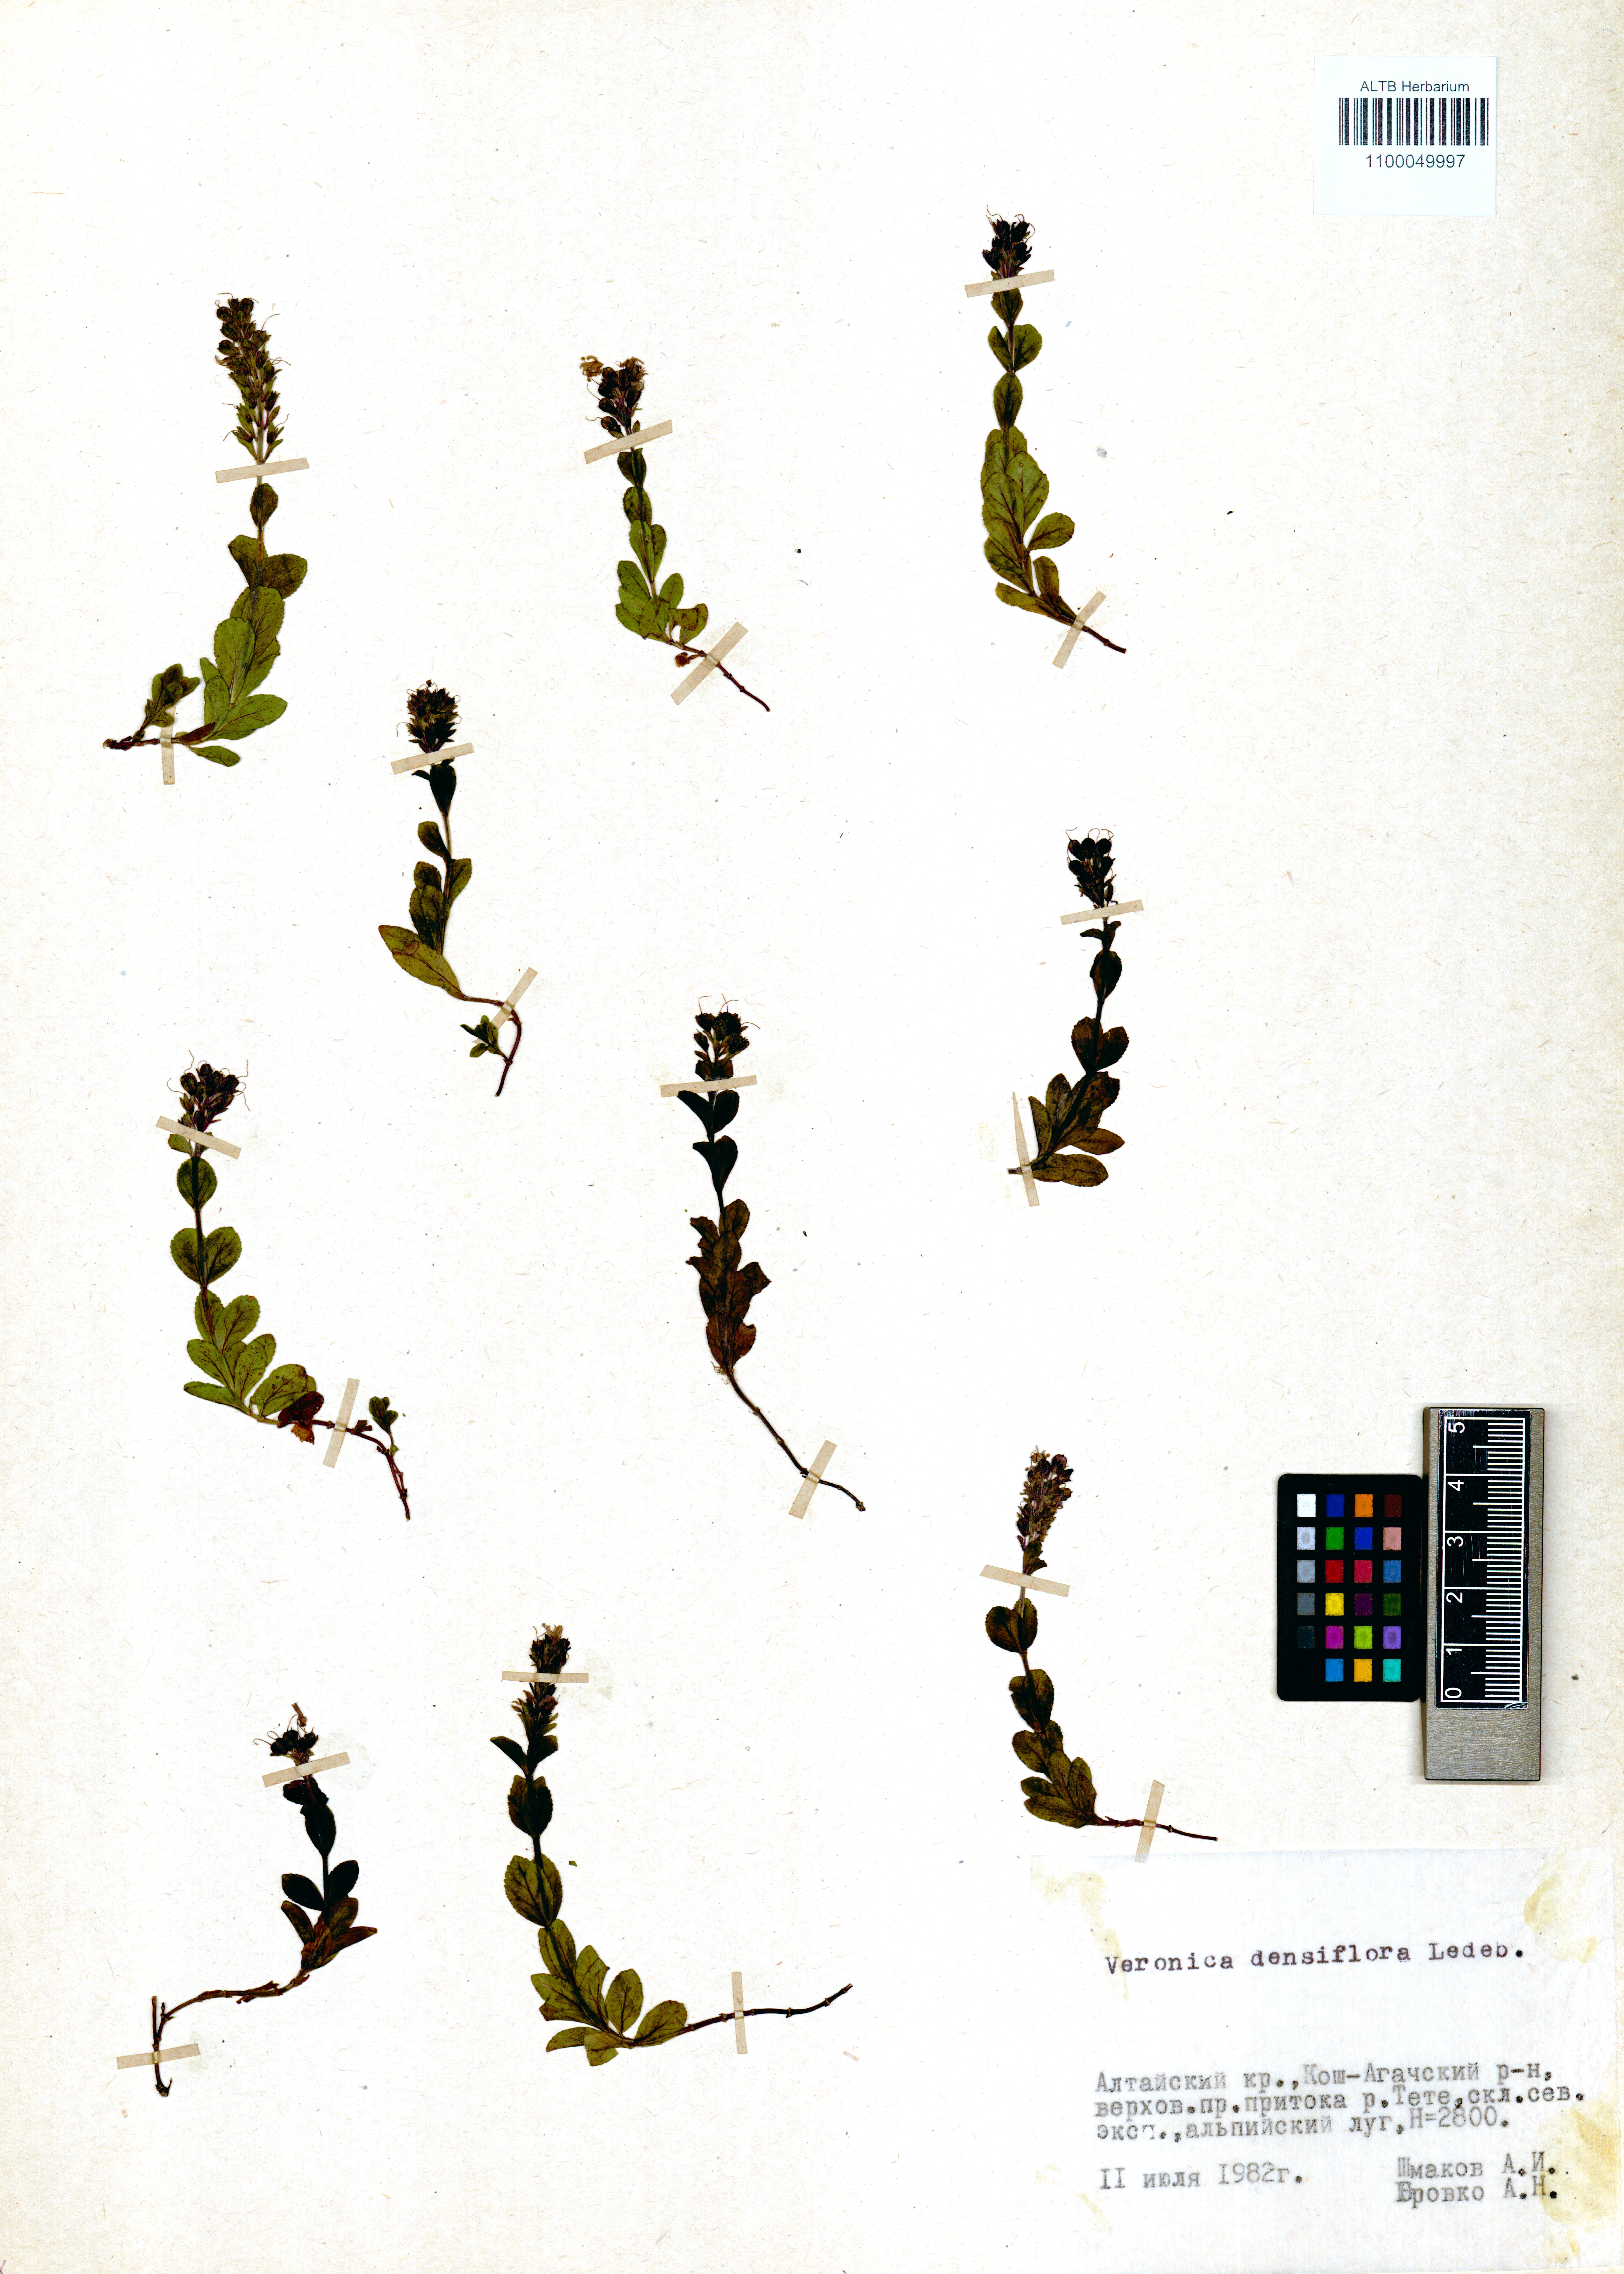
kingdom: Plantae
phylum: Tracheophyta
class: Magnoliopsida
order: Lamiales
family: Plantaginaceae
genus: Veronica
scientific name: Veronica densiflora
